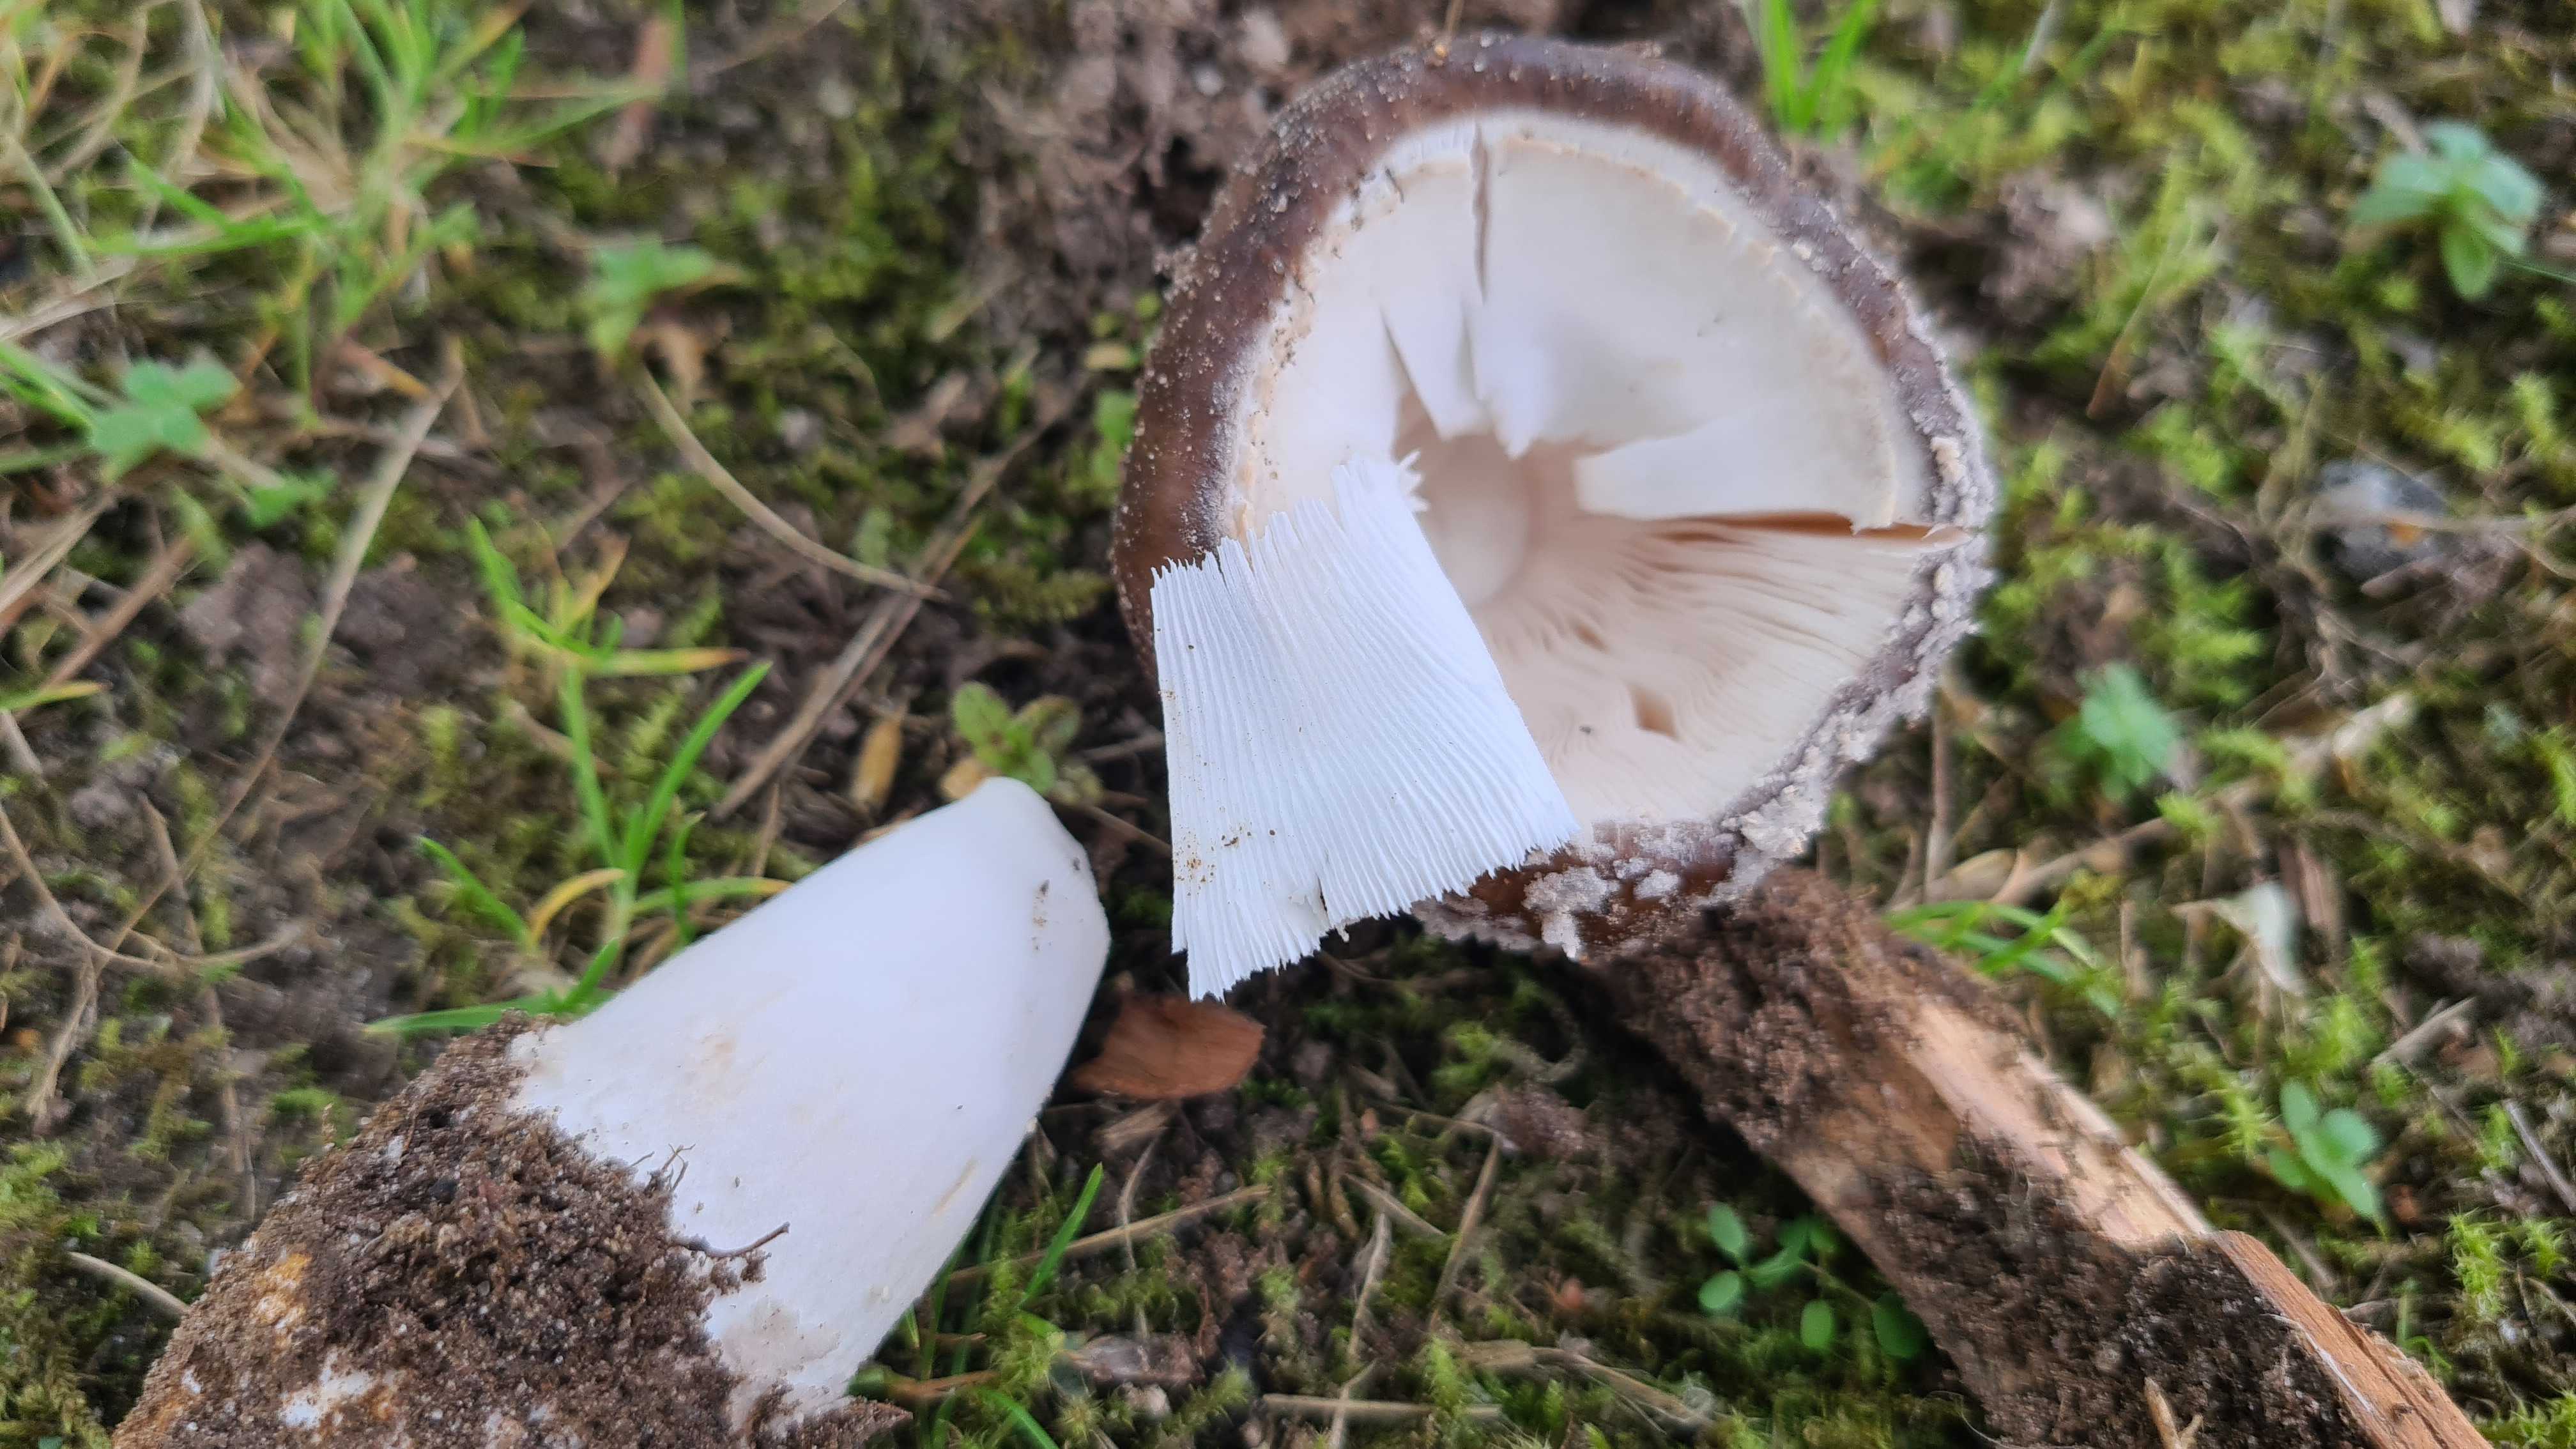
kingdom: Fungi
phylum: Basidiomycota
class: Agaricomycetes
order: Agaricales
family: Amanitaceae
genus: Amanita
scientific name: Amanita
